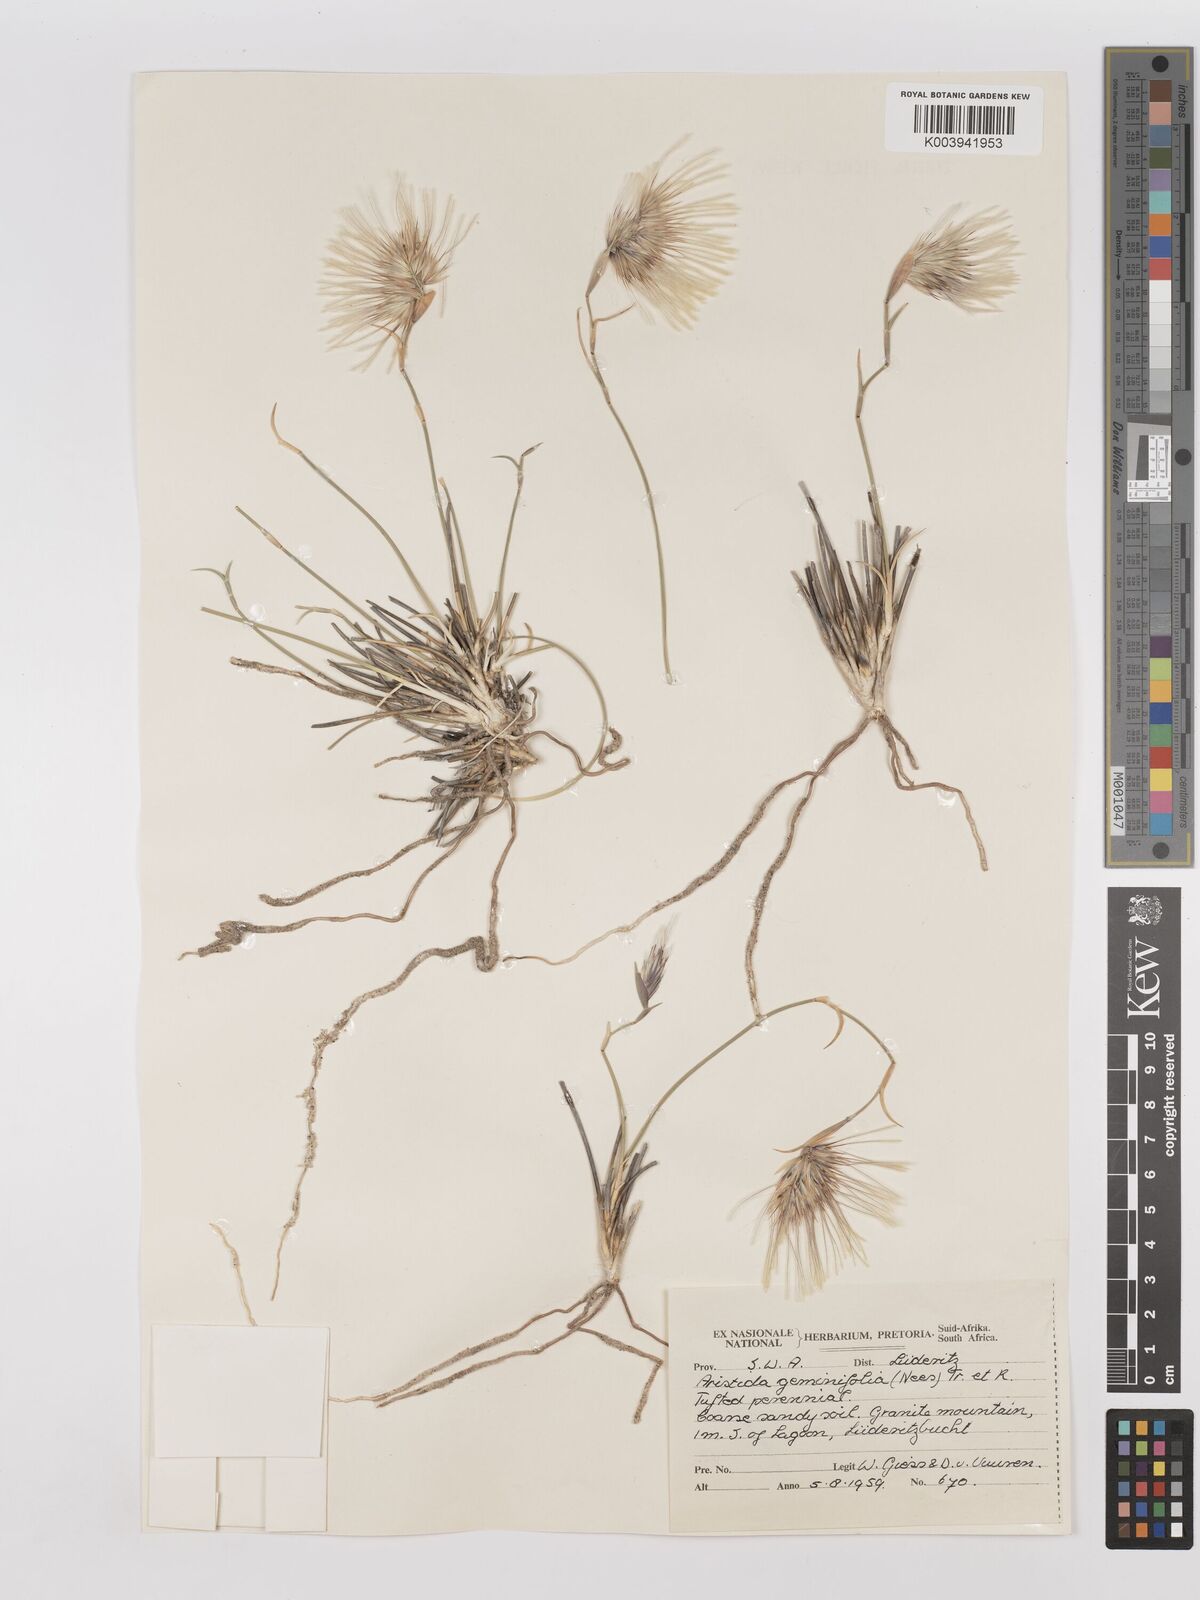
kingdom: Plantae
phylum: Tracheophyta
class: Liliopsida
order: Poales
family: Poaceae
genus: Stipagrostis
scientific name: Stipagrostis geminifolia
